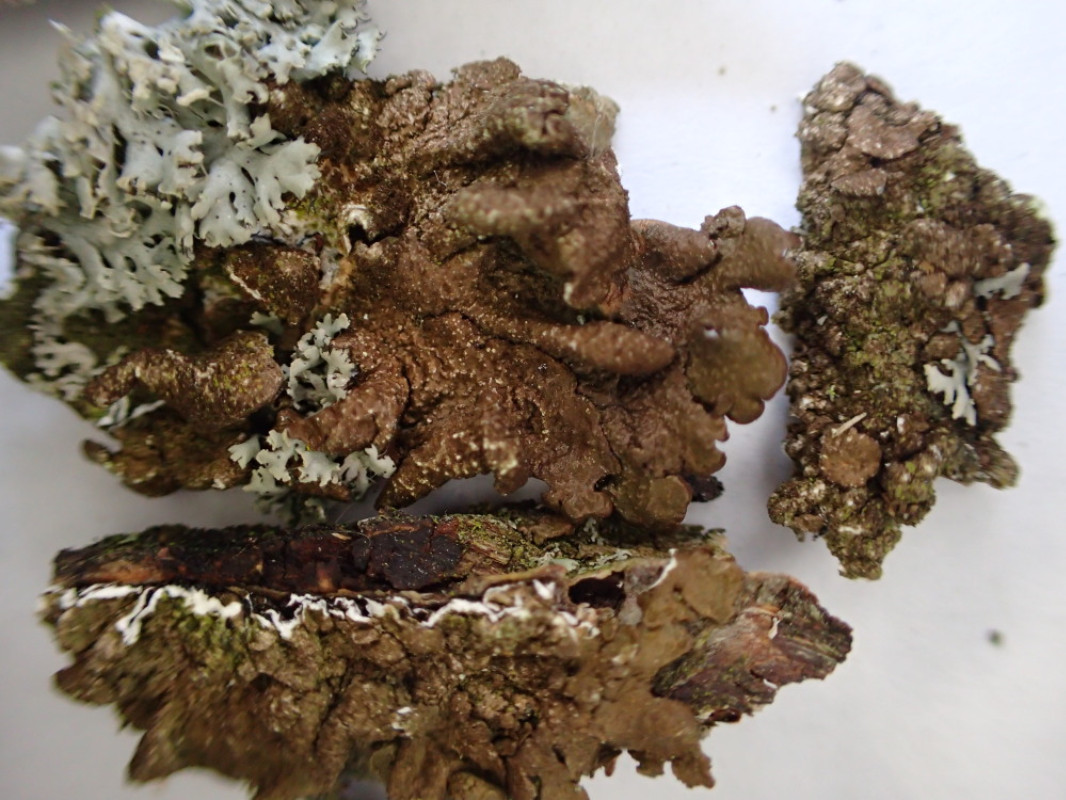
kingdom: Fungi
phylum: Ascomycota
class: Lecanoromycetes
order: Lecanorales
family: Parmeliaceae
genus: Melanelixia
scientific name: Melanelixia subaurifera
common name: guldpudret skållav
